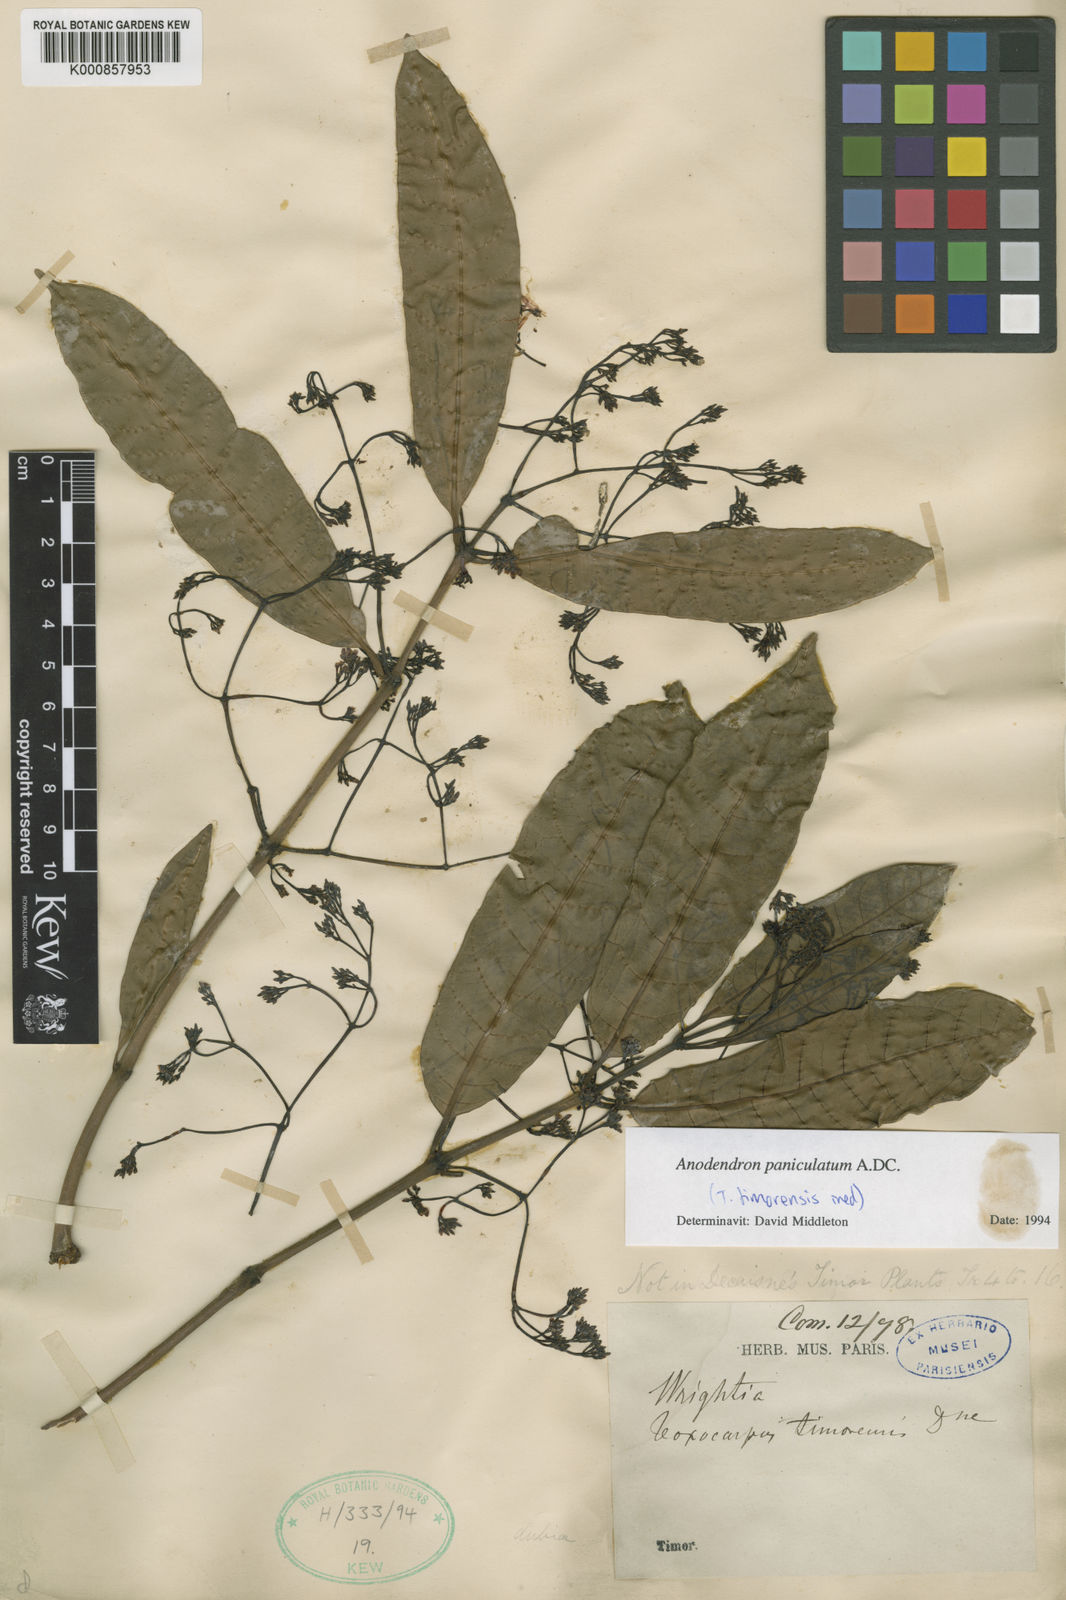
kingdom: Plantae
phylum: Tracheophyta
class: Magnoliopsida
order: Gentianales
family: Apocynaceae
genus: Anodendron
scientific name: Anodendron parviflorum
